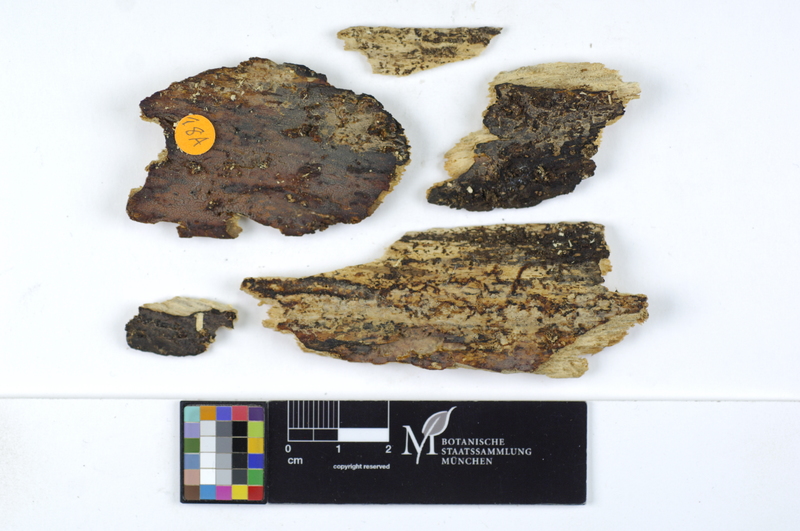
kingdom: Plantae
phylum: Tracheophyta
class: Magnoliopsida
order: Fagales
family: Fagaceae
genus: Fagus
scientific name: Fagus sylvatica
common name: Beech
